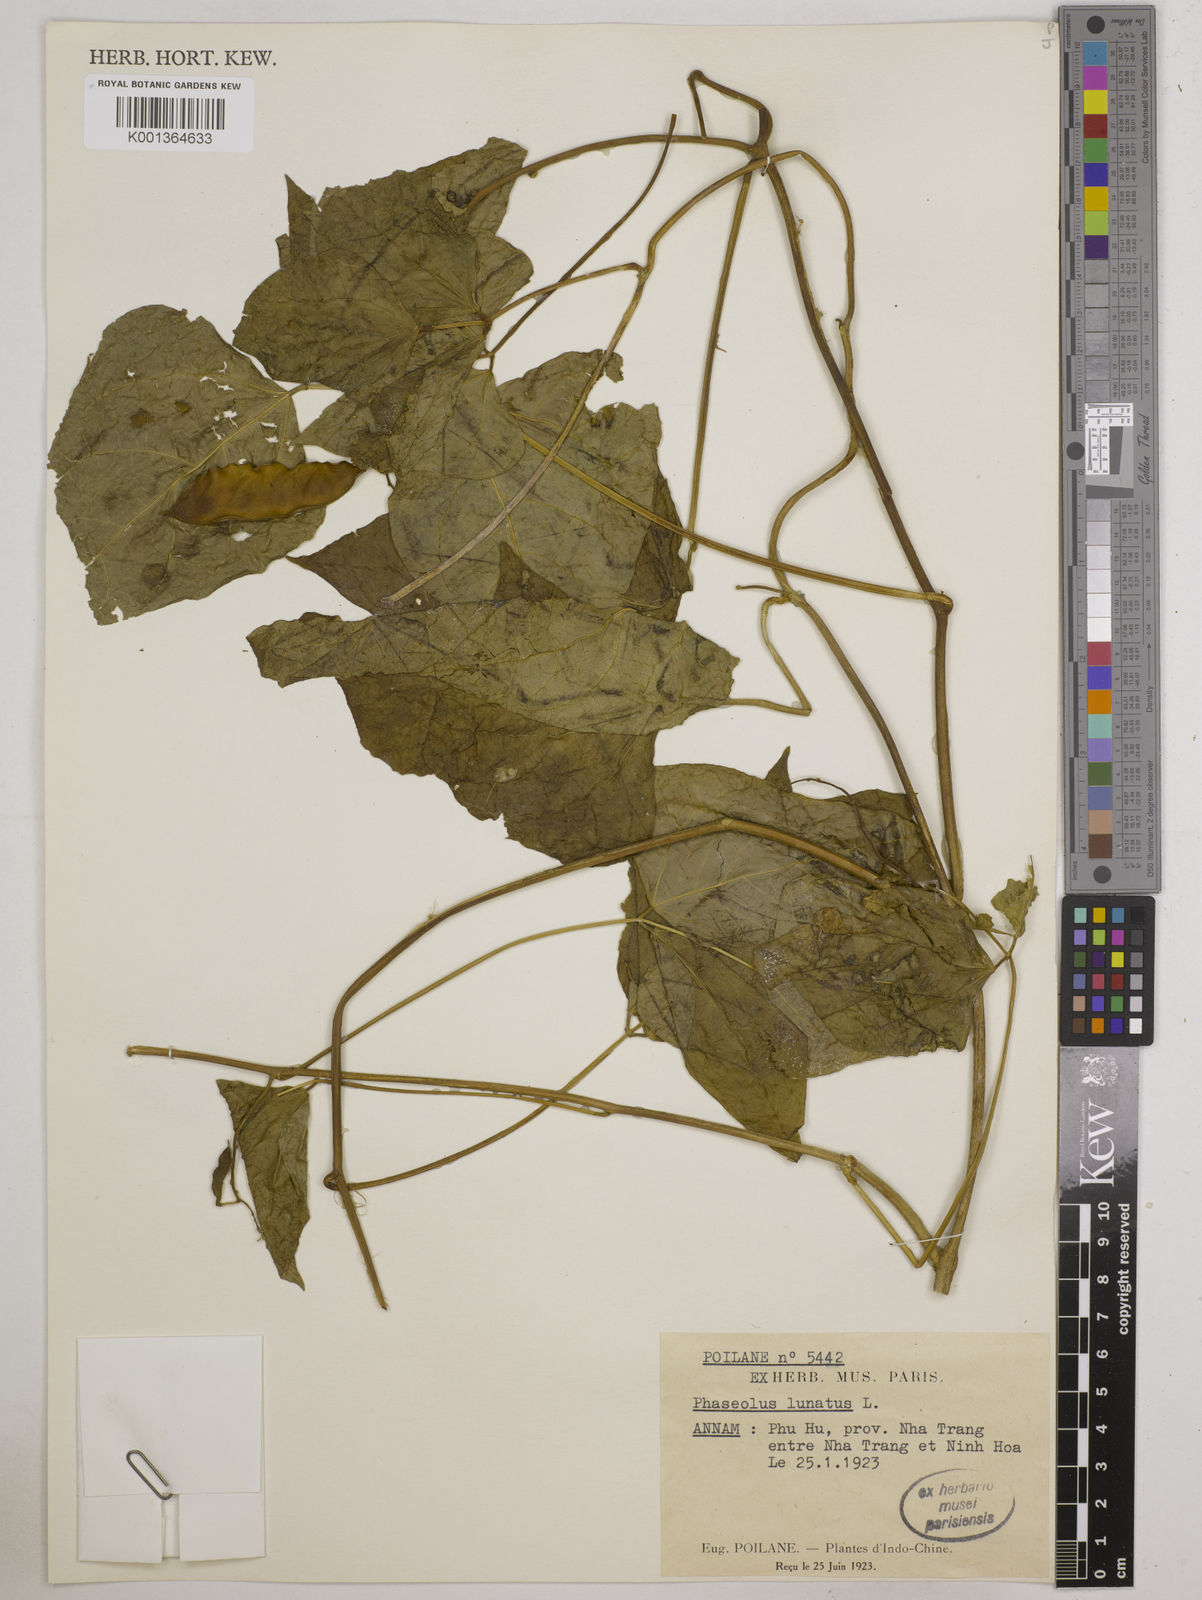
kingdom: Plantae
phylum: Tracheophyta
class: Magnoliopsida
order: Fabales
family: Fabaceae
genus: Phaseolus
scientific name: Phaseolus lunatus
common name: Sieva bean
